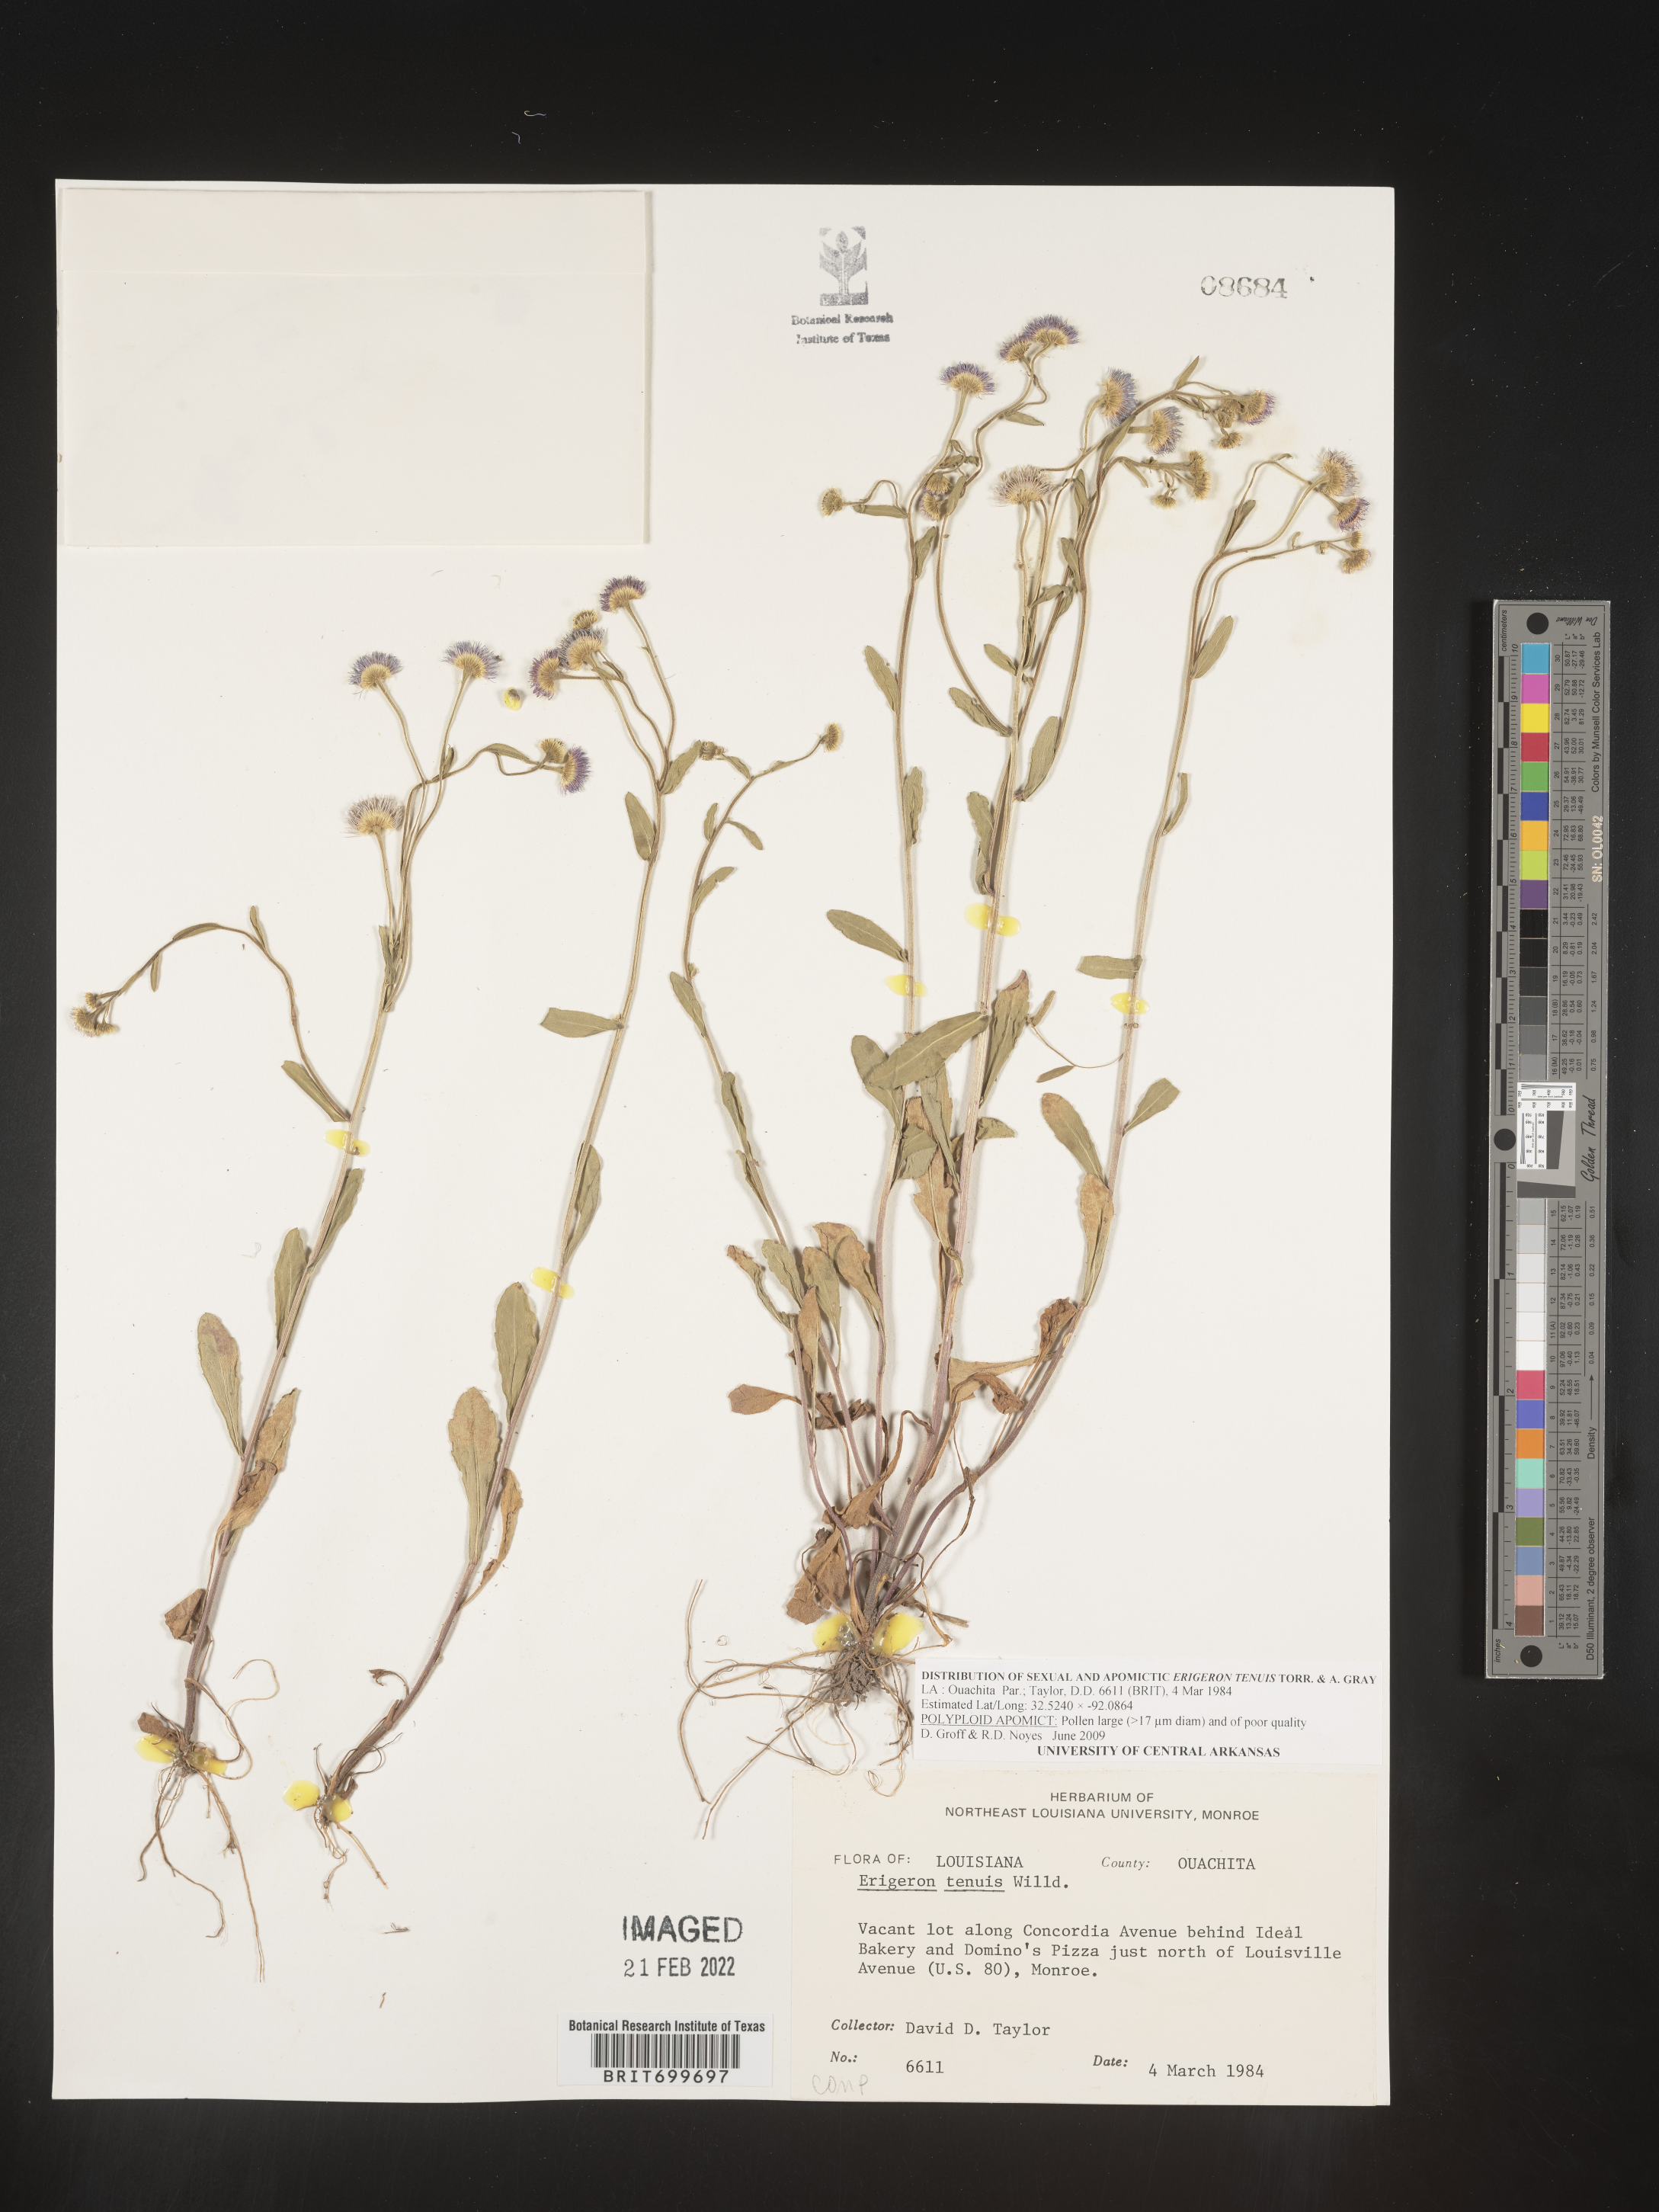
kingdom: Plantae
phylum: Tracheophyta
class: Magnoliopsida
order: Asterales
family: Asteraceae
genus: Erigeron
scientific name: Erigeron tenuis
